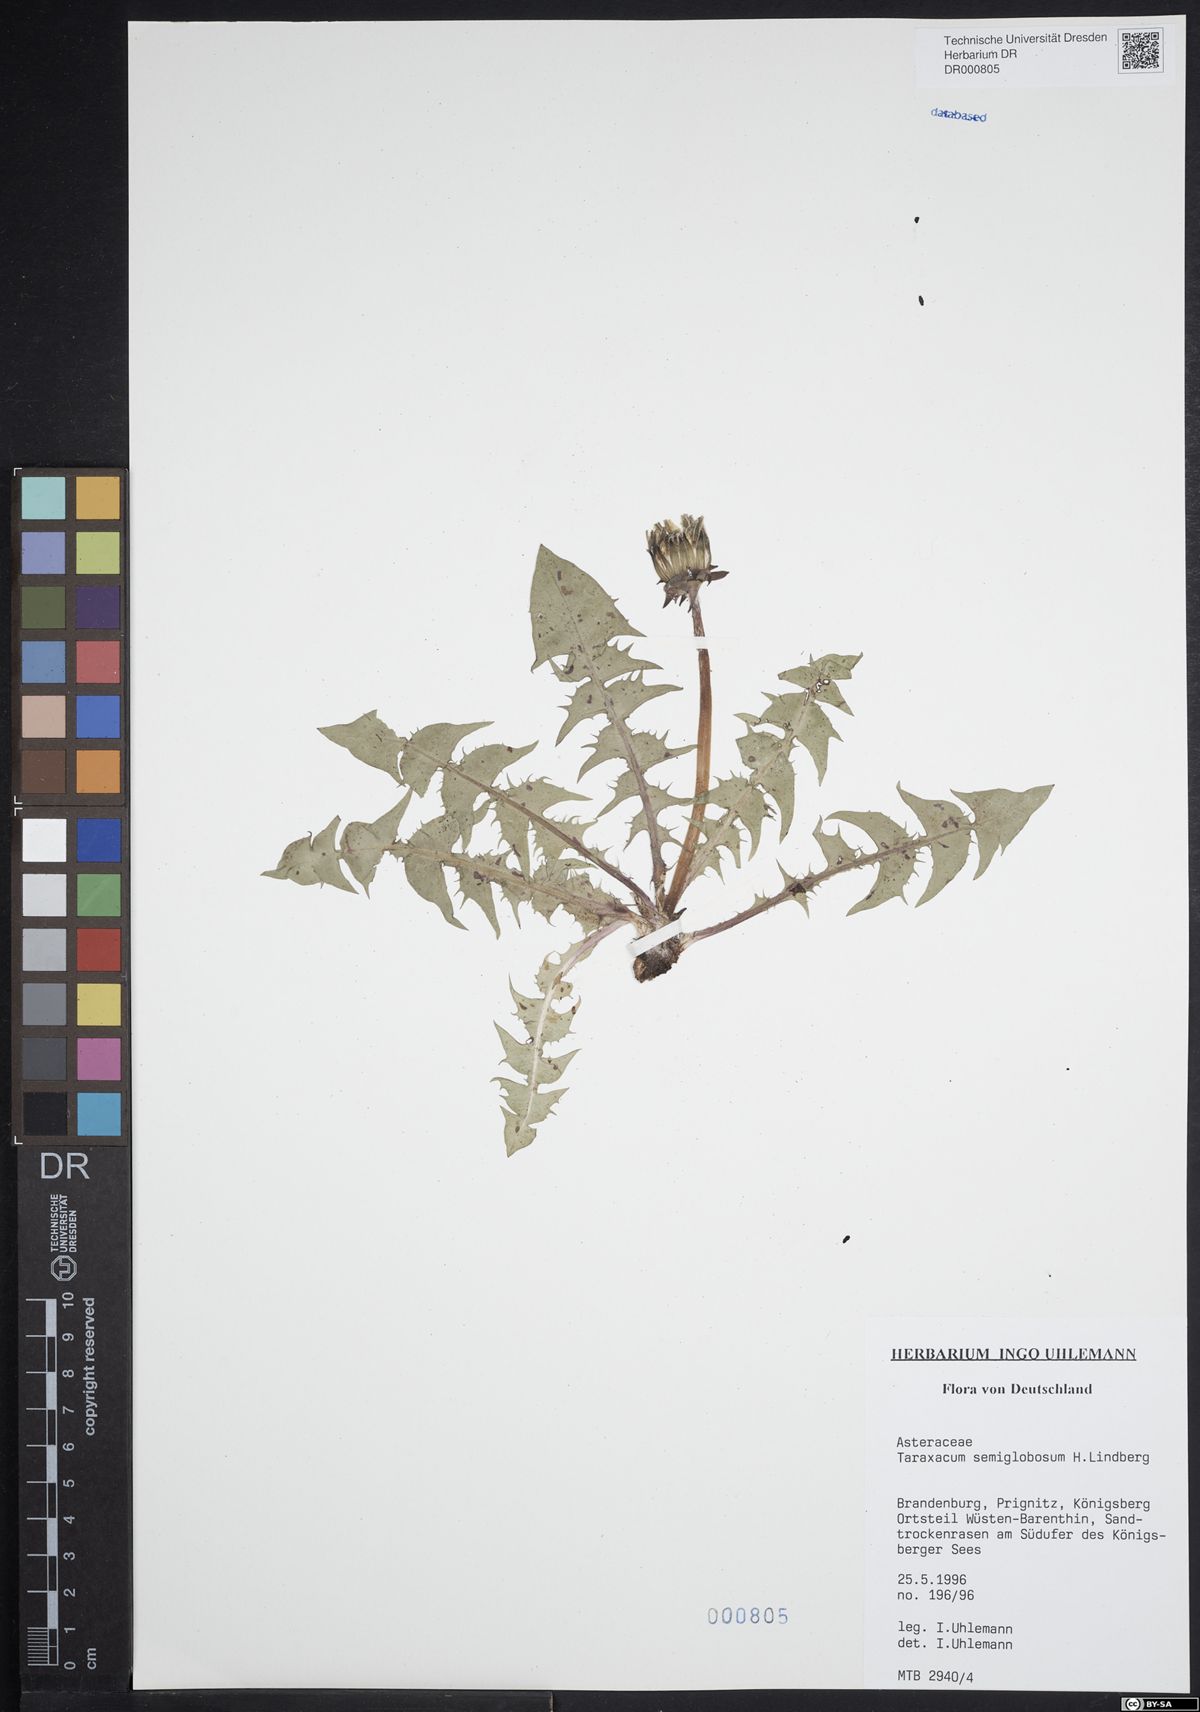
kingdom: Plantae
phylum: Tracheophyta
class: Magnoliopsida
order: Asterales
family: Asteraceae
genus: Taraxacum
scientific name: Taraxacum semiglobosum
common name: Hairy-ribbed dandelion
